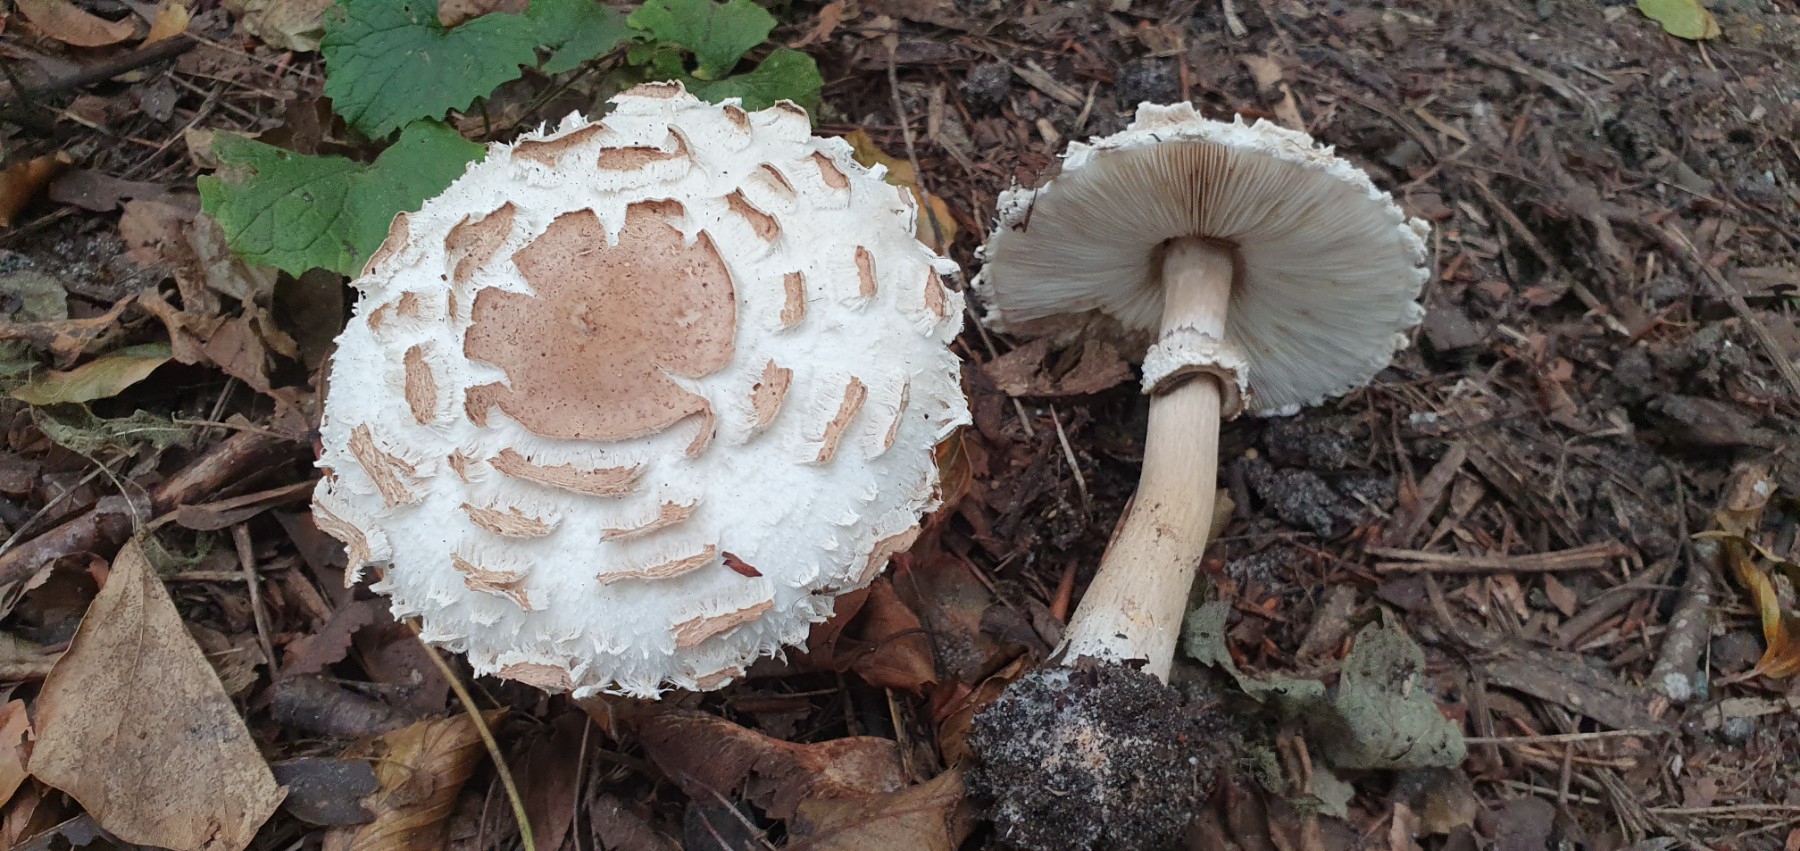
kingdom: Fungi
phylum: Basidiomycota
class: Agaricomycetes
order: Agaricales
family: Agaricaceae
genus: Chlorophyllum
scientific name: Chlorophyllum rhacodes
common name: ægte rabarberhat
